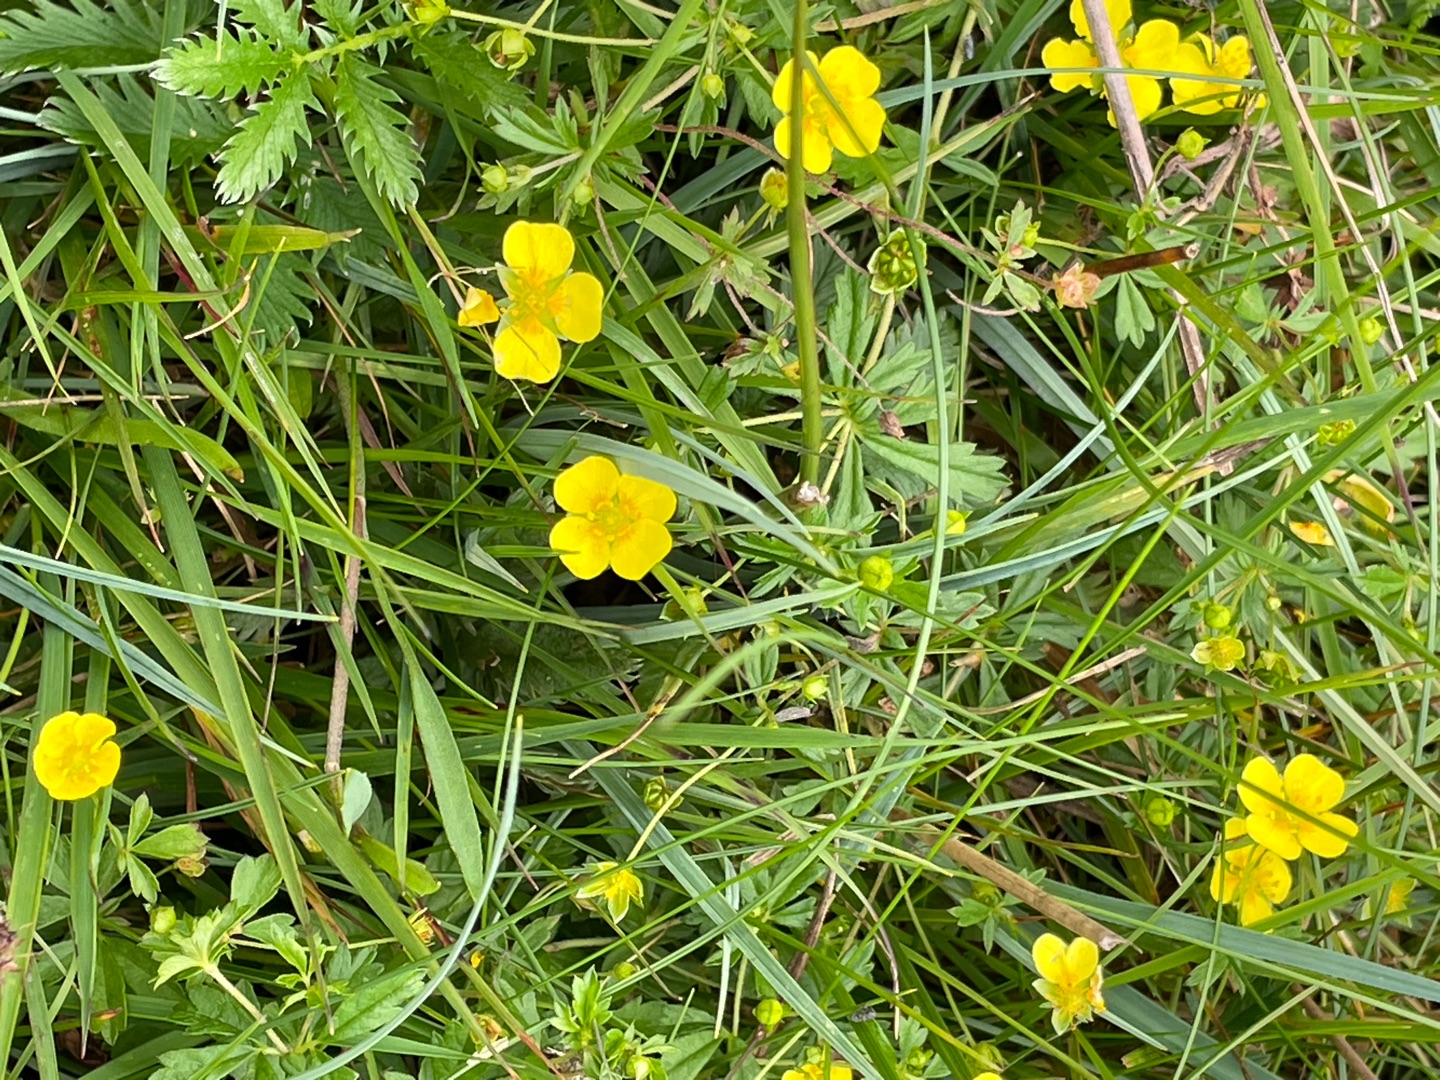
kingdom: Plantae
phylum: Tracheophyta
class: Magnoliopsida
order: Rosales
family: Rosaceae
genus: Potentilla
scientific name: Potentilla erecta
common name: Tormentil
